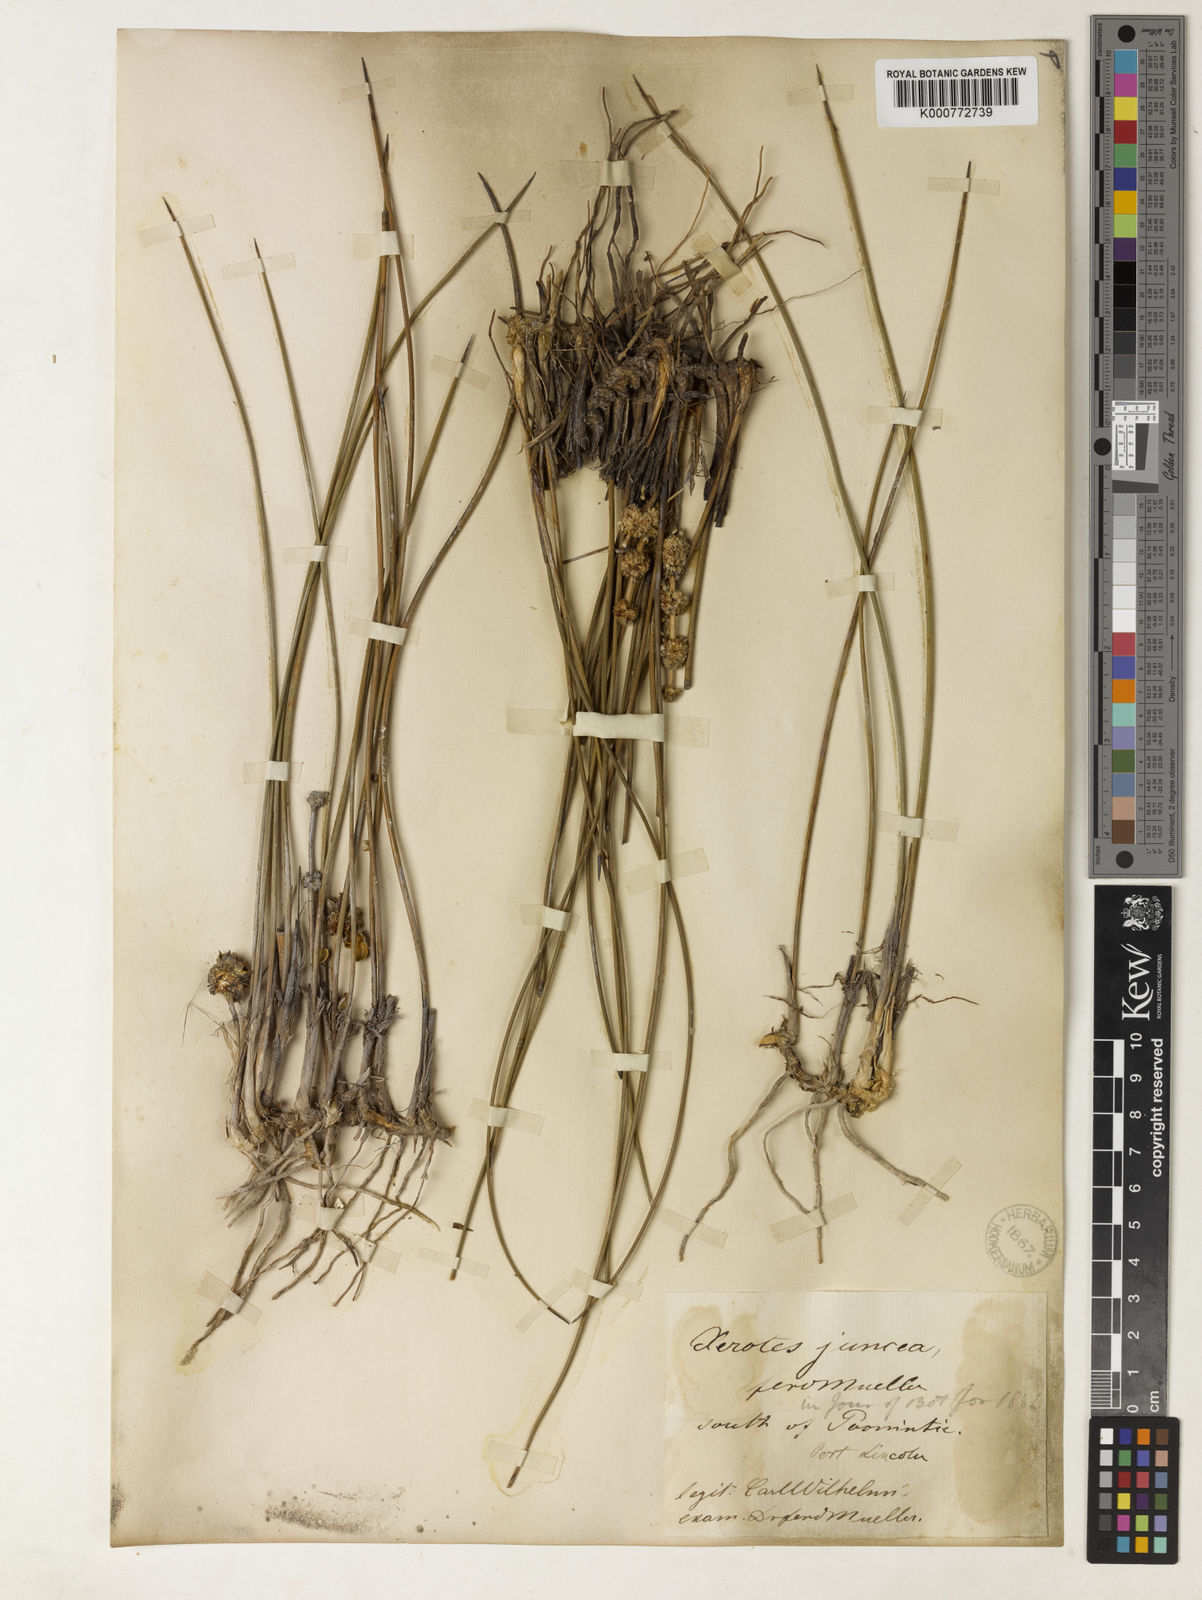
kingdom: Plantae
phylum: Tracheophyta
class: Liliopsida
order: Asparagales
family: Asparagaceae
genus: Lomandra
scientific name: Lomandra juncea
